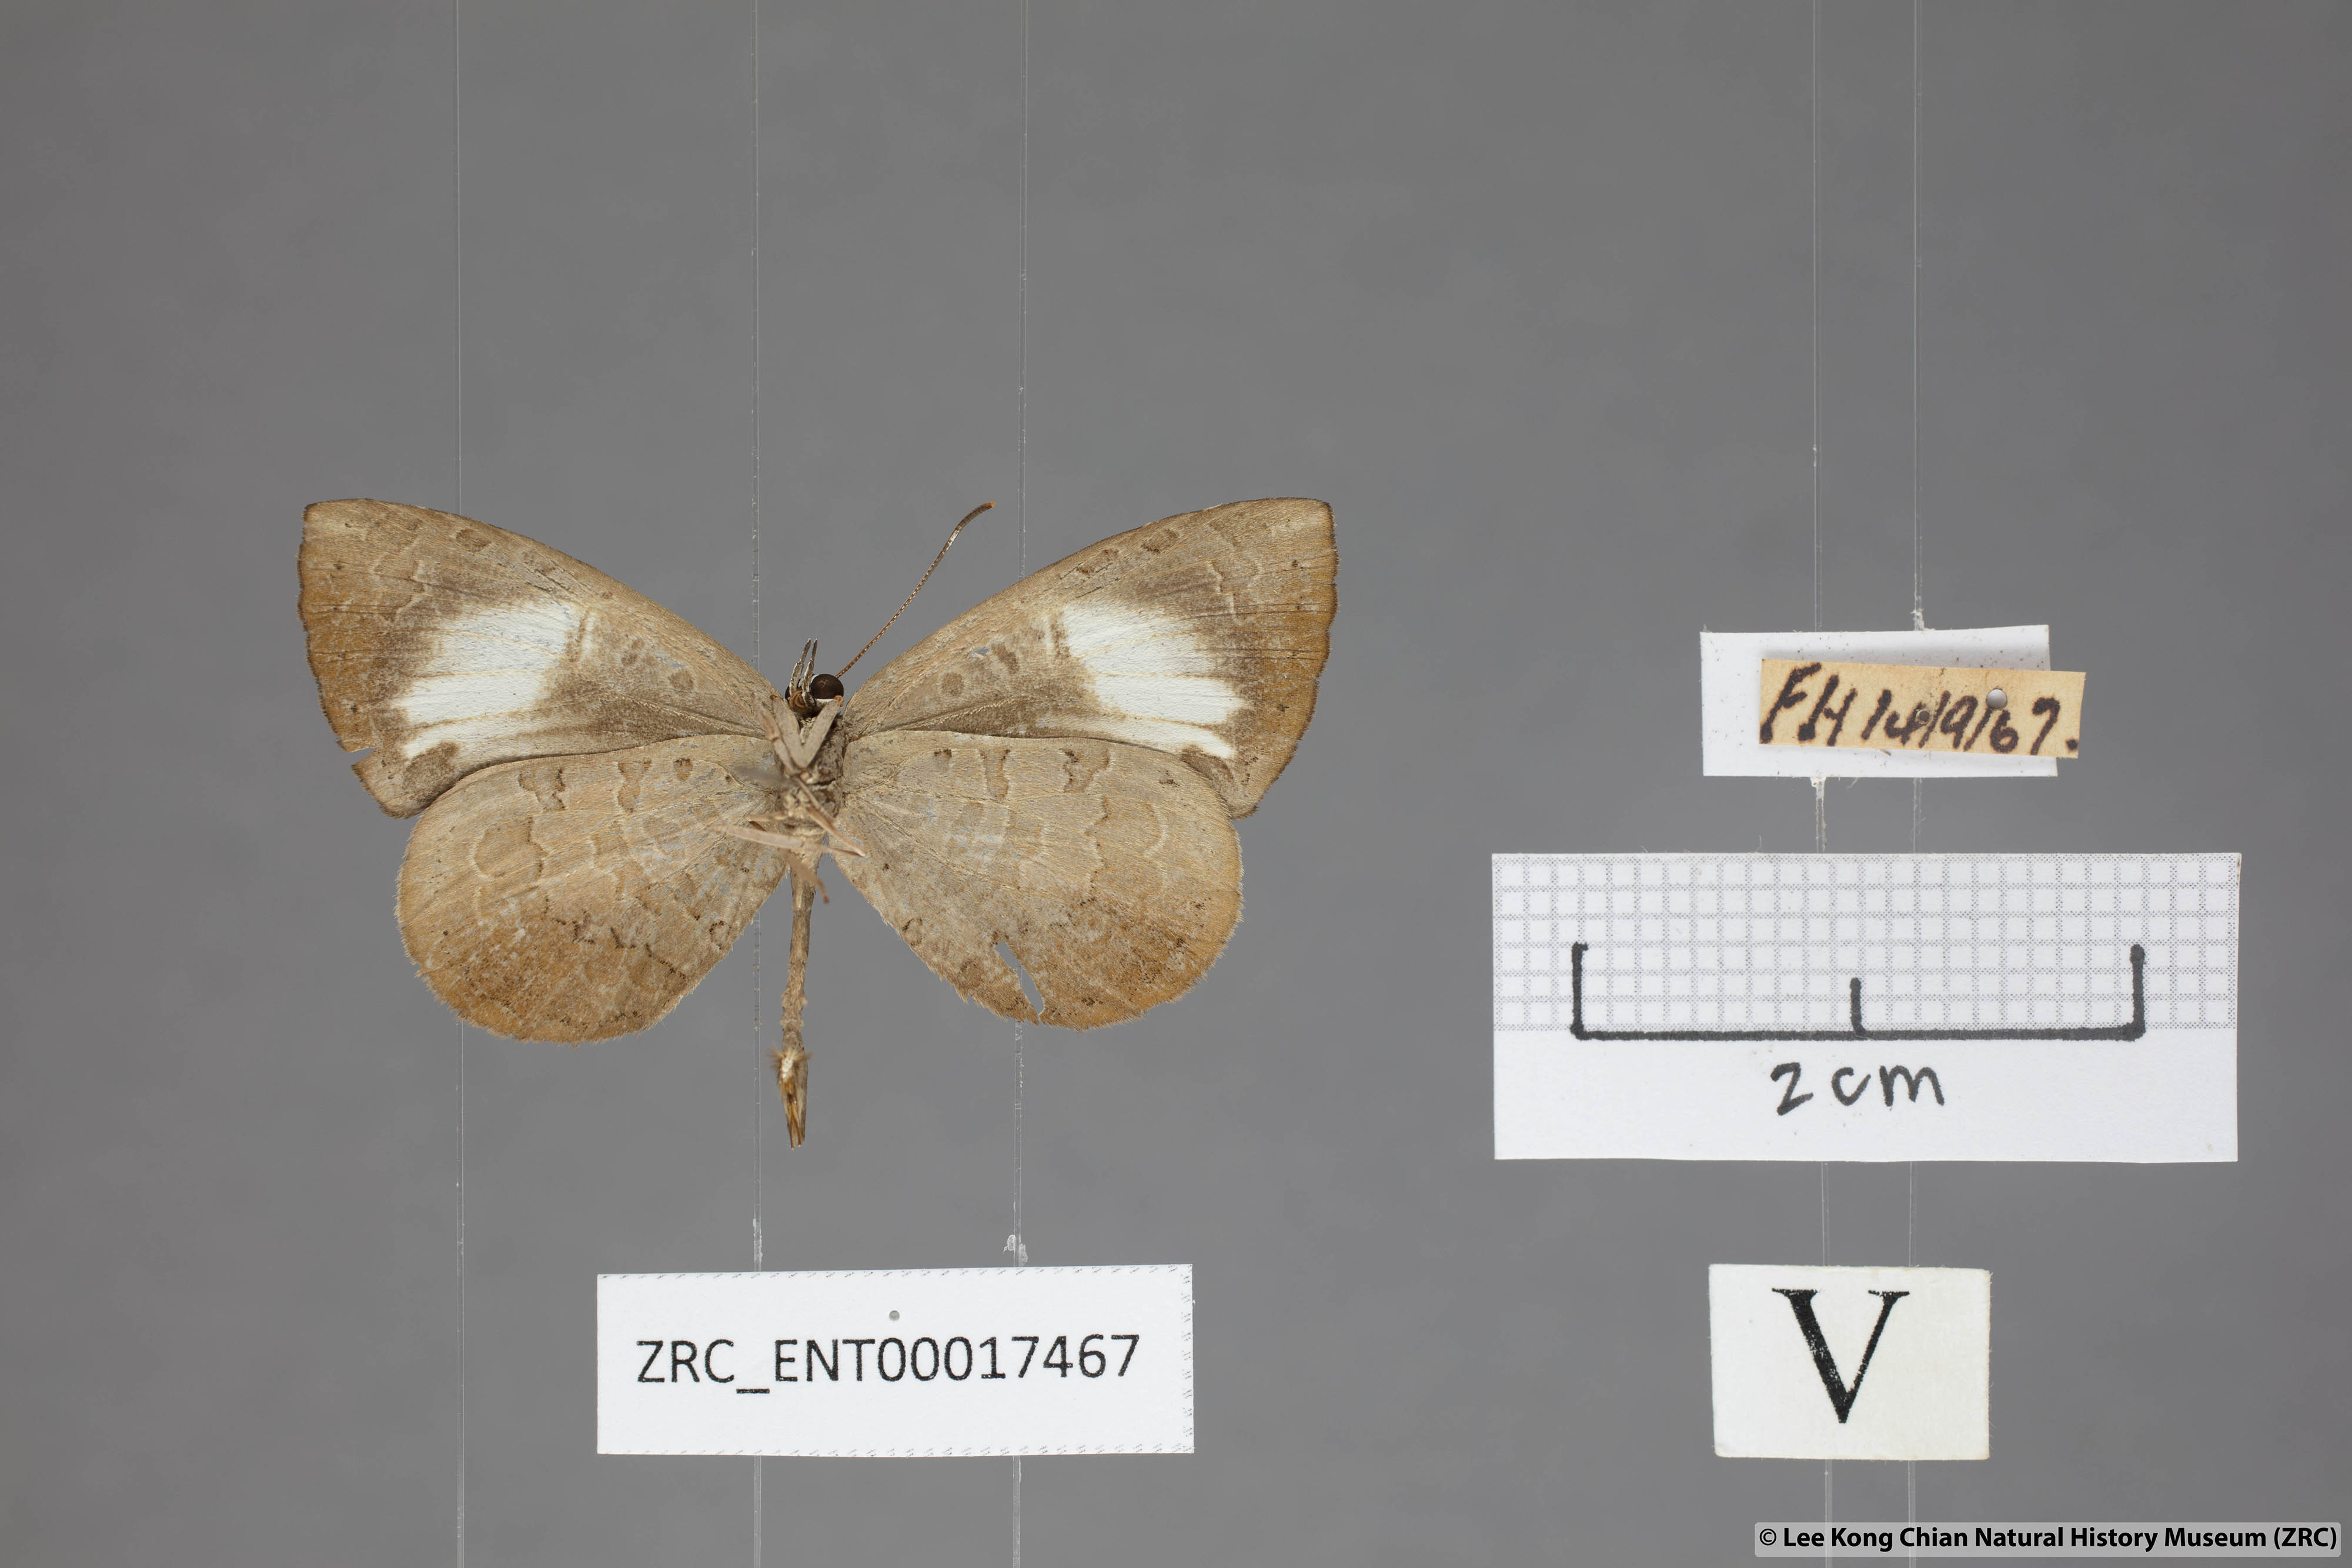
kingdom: Animalia
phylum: Arthropoda
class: Insecta
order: Lepidoptera
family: Lycaenidae
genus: Miletus
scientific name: Miletus nymphis
